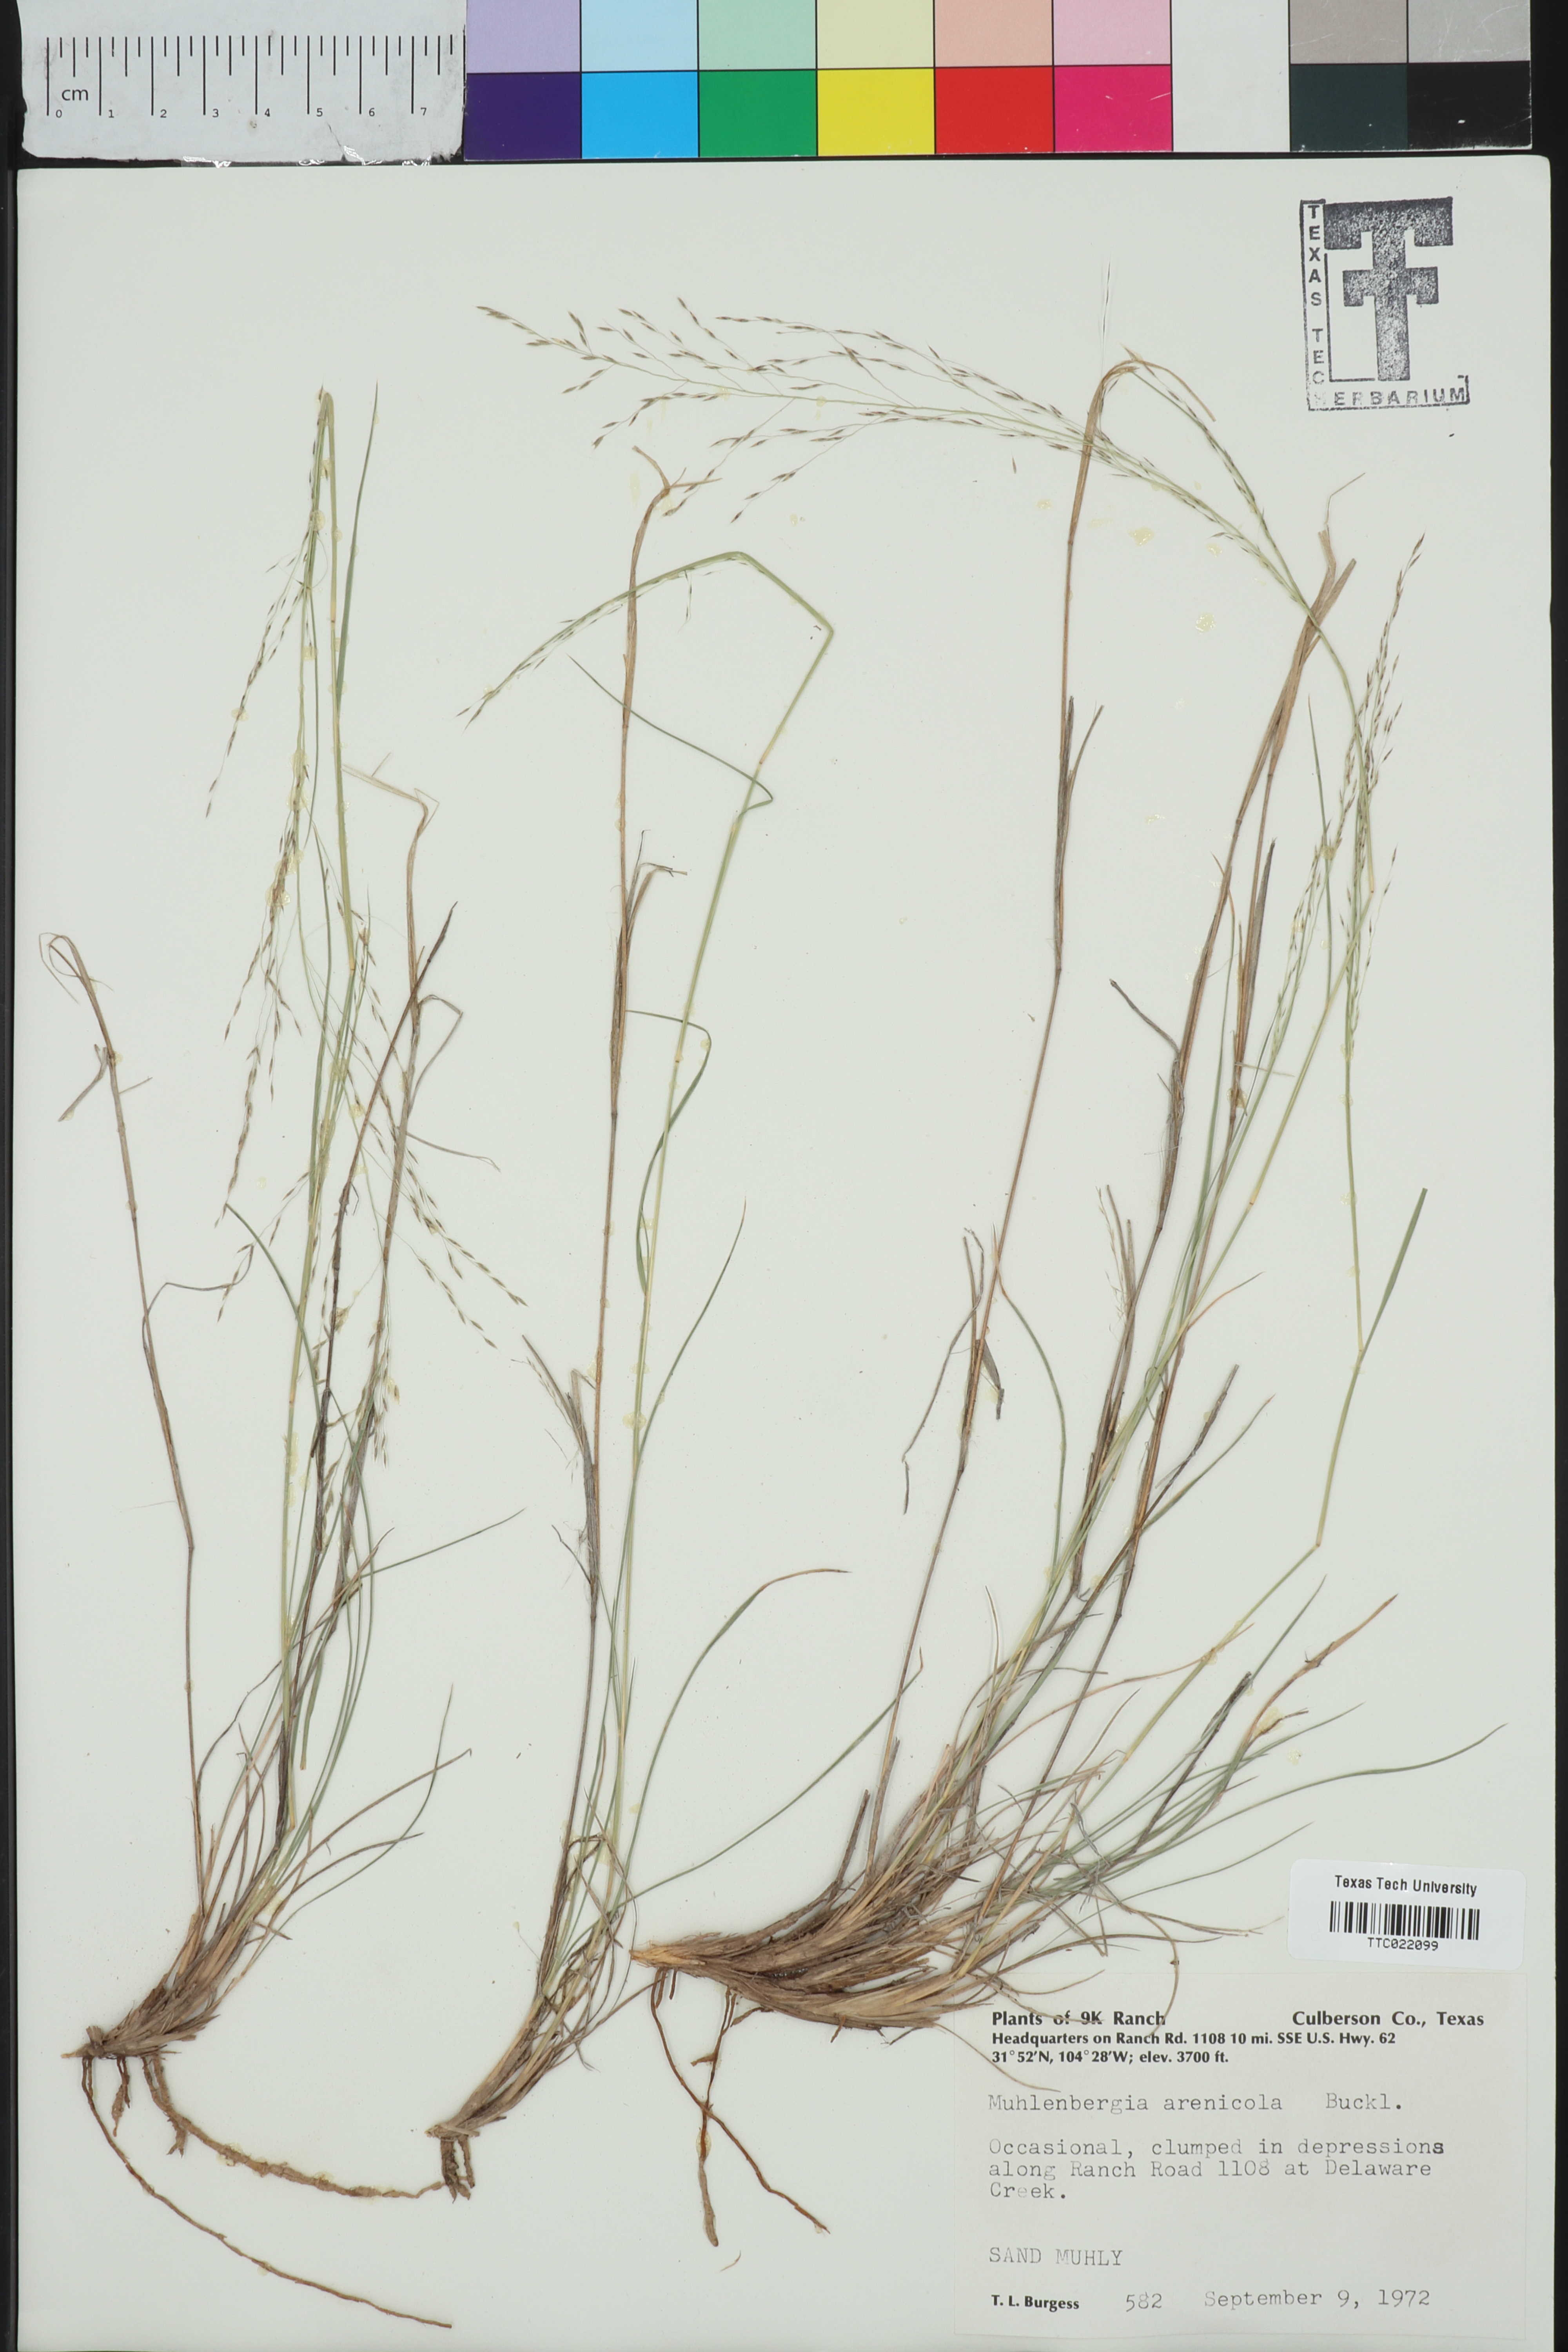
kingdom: Plantae
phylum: Tracheophyta
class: Liliopsida
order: Poales
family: Poaceae
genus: Muhlenbergia
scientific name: Muhlenbergia arenicola
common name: Sand muhly
